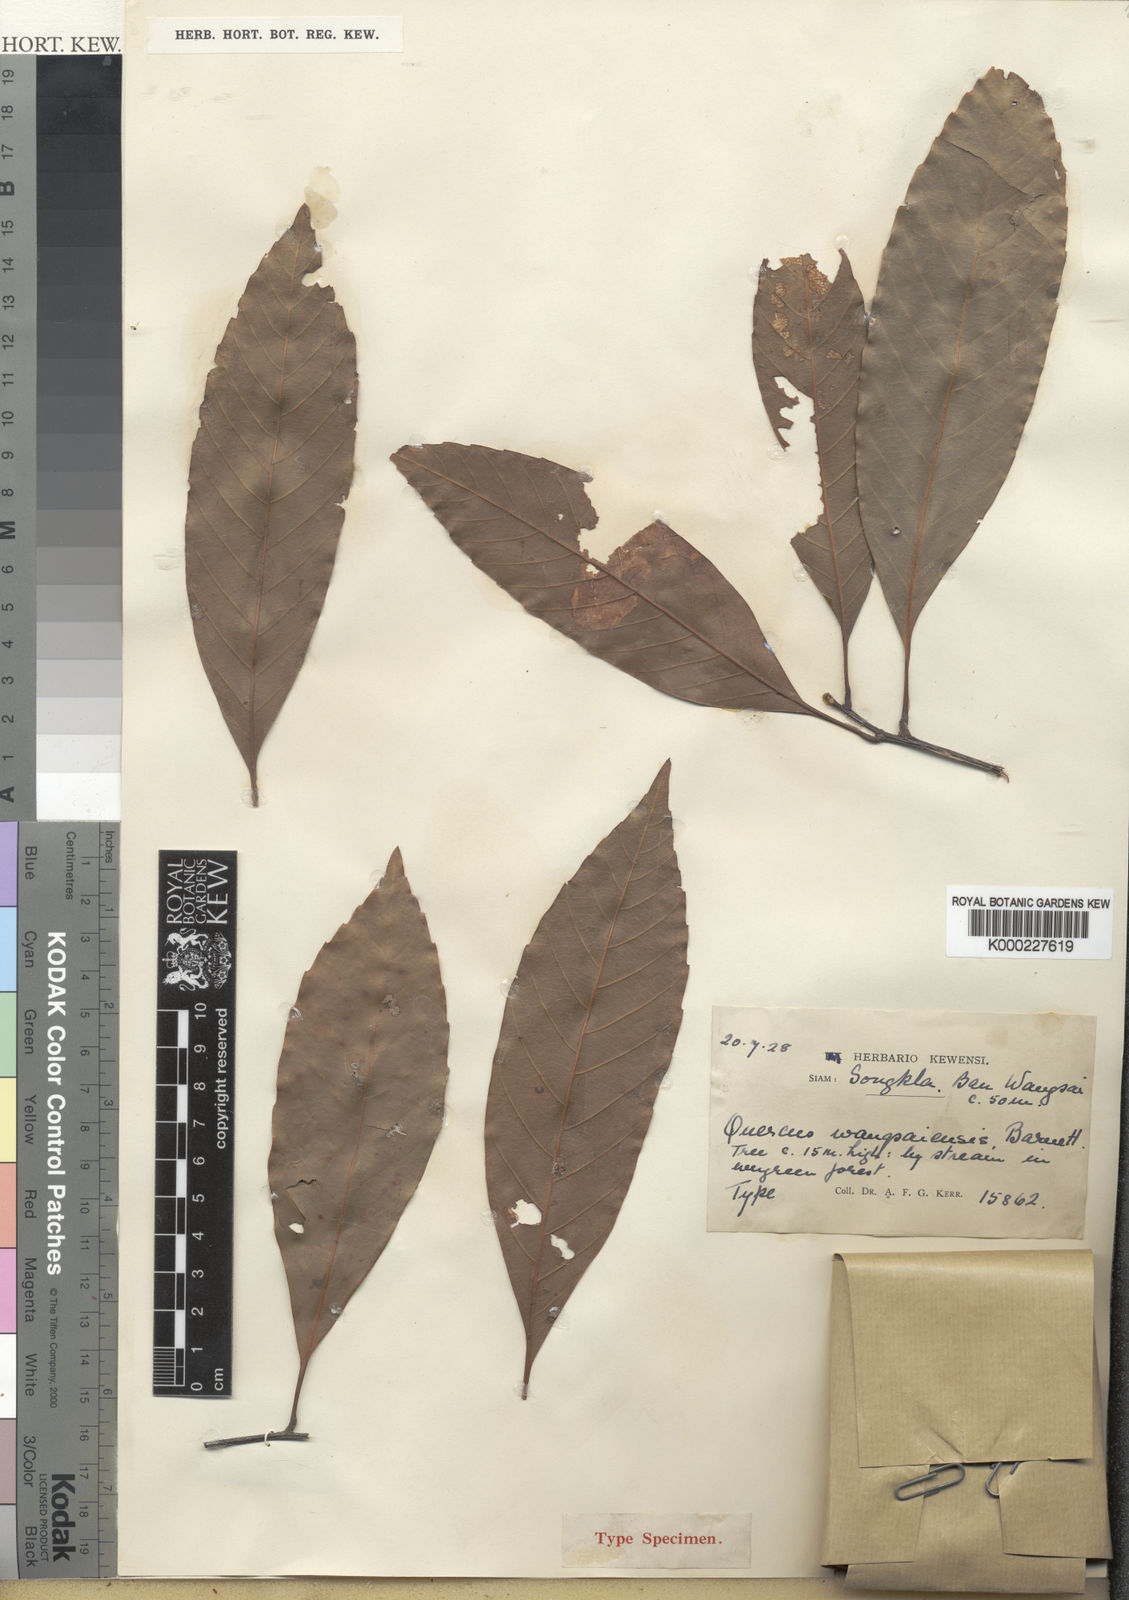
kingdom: Plantae
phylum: Tracheophyta
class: Magnoliopsida
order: Fagales
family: Fagaceae
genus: Quercus
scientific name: Quercus quangtriensis
